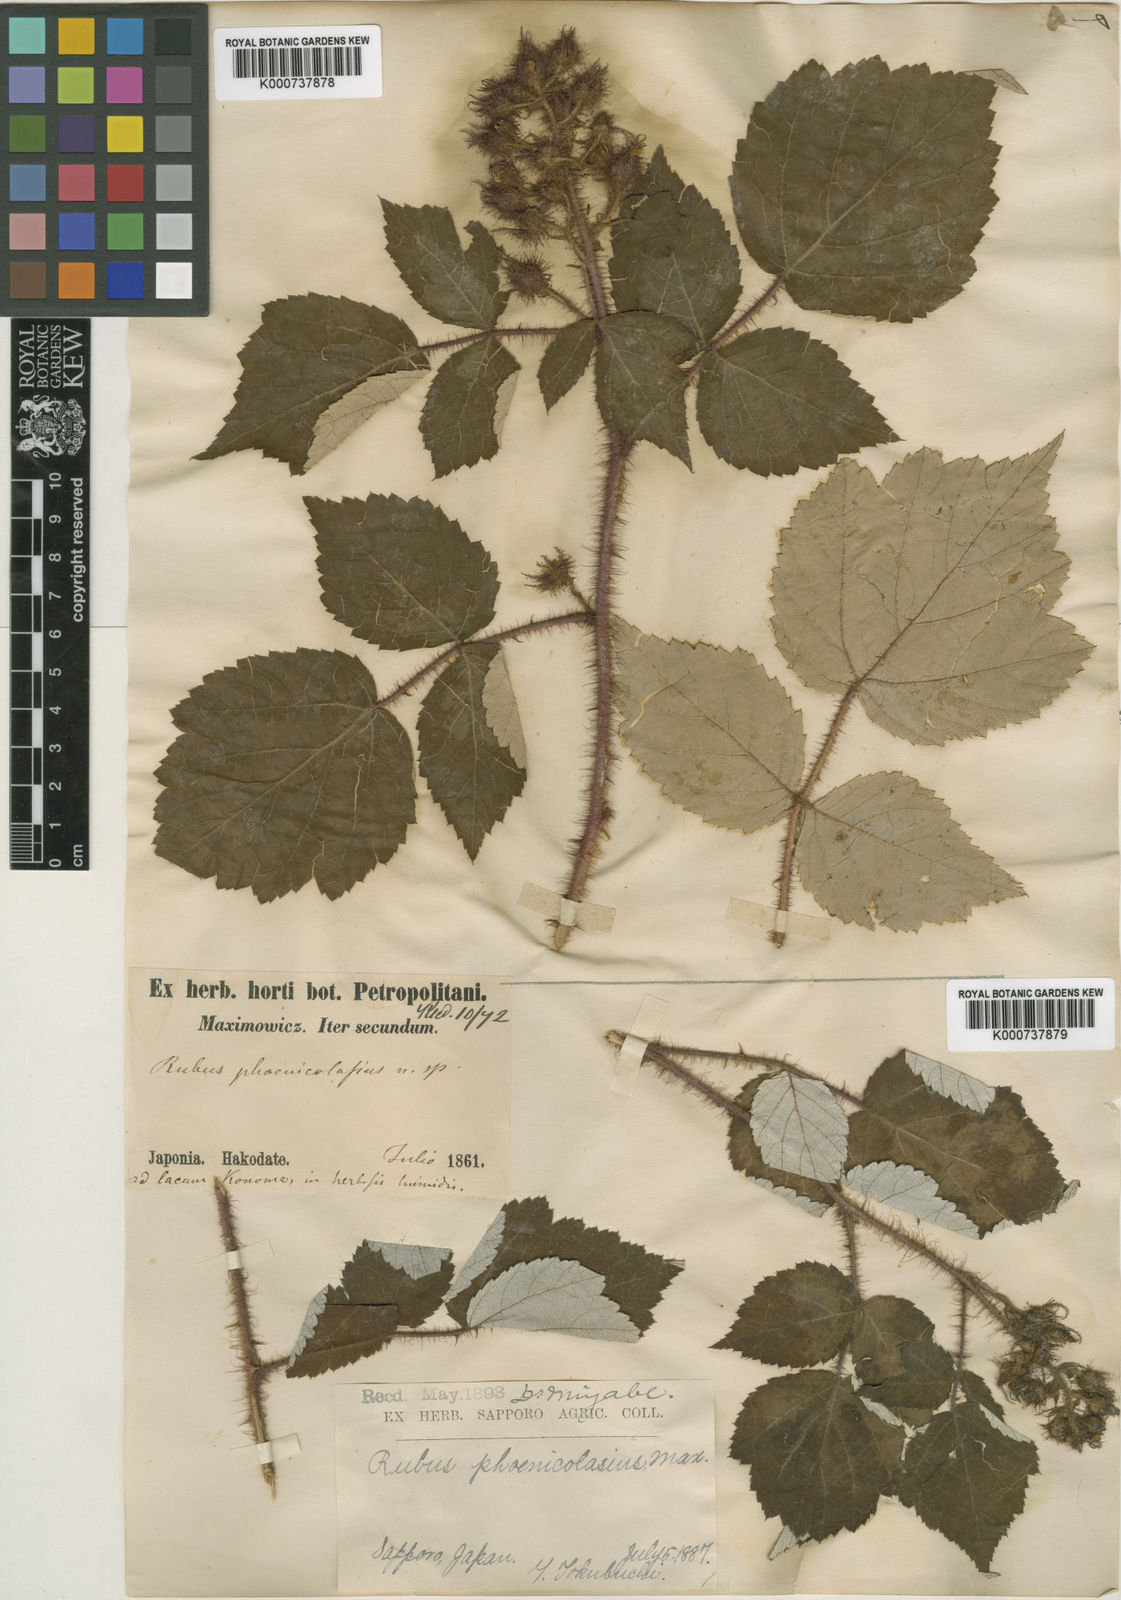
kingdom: Plantae
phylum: Tracheophyta
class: Magnoliopsida
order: Rosales
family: Rosaceae
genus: Rubus
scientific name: Rubus phoenicolasius
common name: Japanese wineberry
